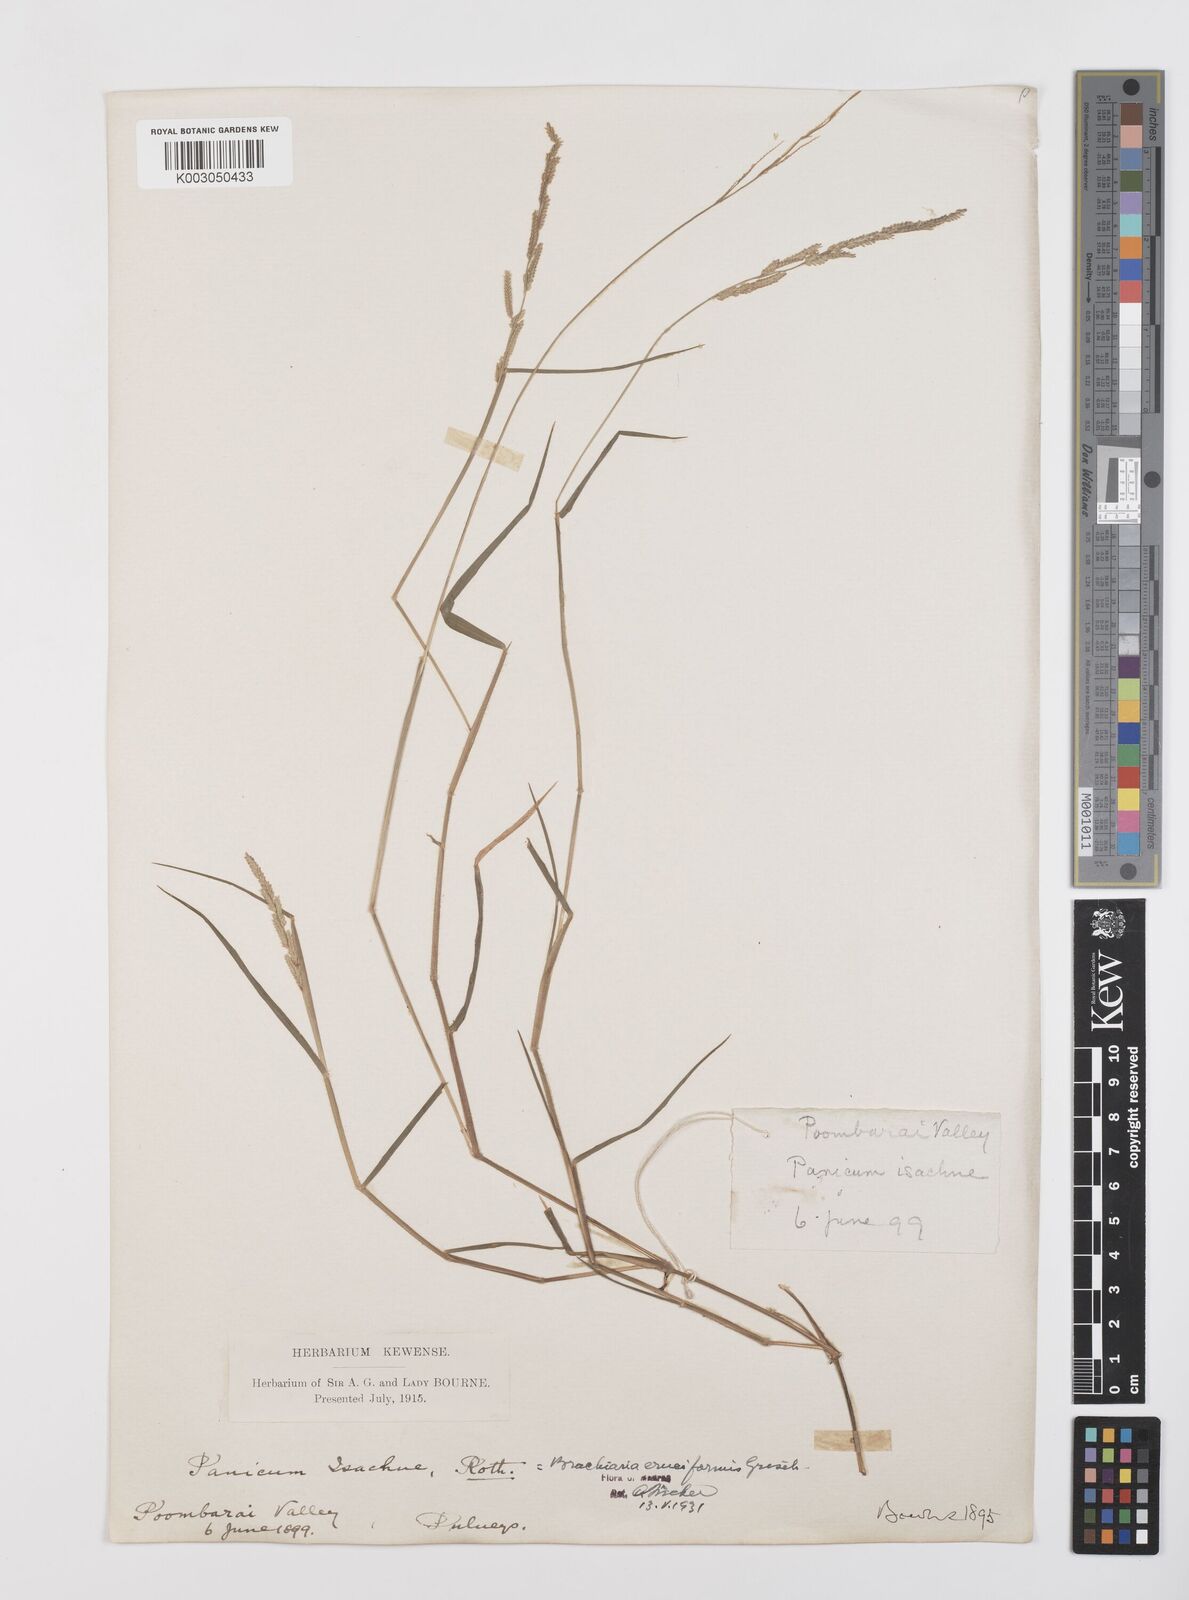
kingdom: Plantae
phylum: Tracheophyta
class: Liliopsida
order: Poales
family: Poaceae
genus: Moorochloa
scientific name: Moorochloa eruciformis
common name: Sweet signalgrass
